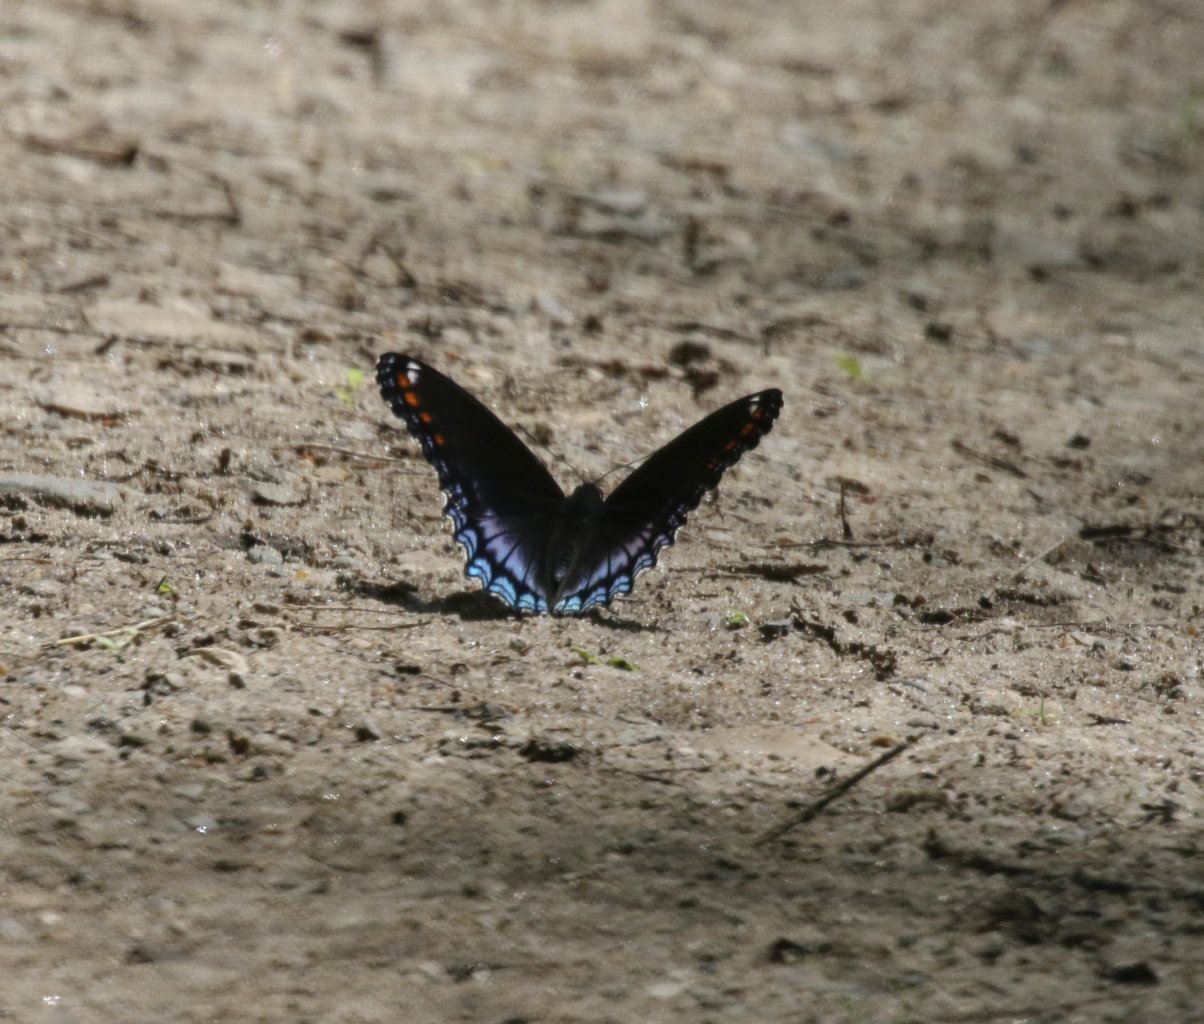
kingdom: Animalia
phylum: Arthropoda
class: Insecta
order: Lepidoptera
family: Nymphalidae
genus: Limenitis
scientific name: Limenitis astyanax
